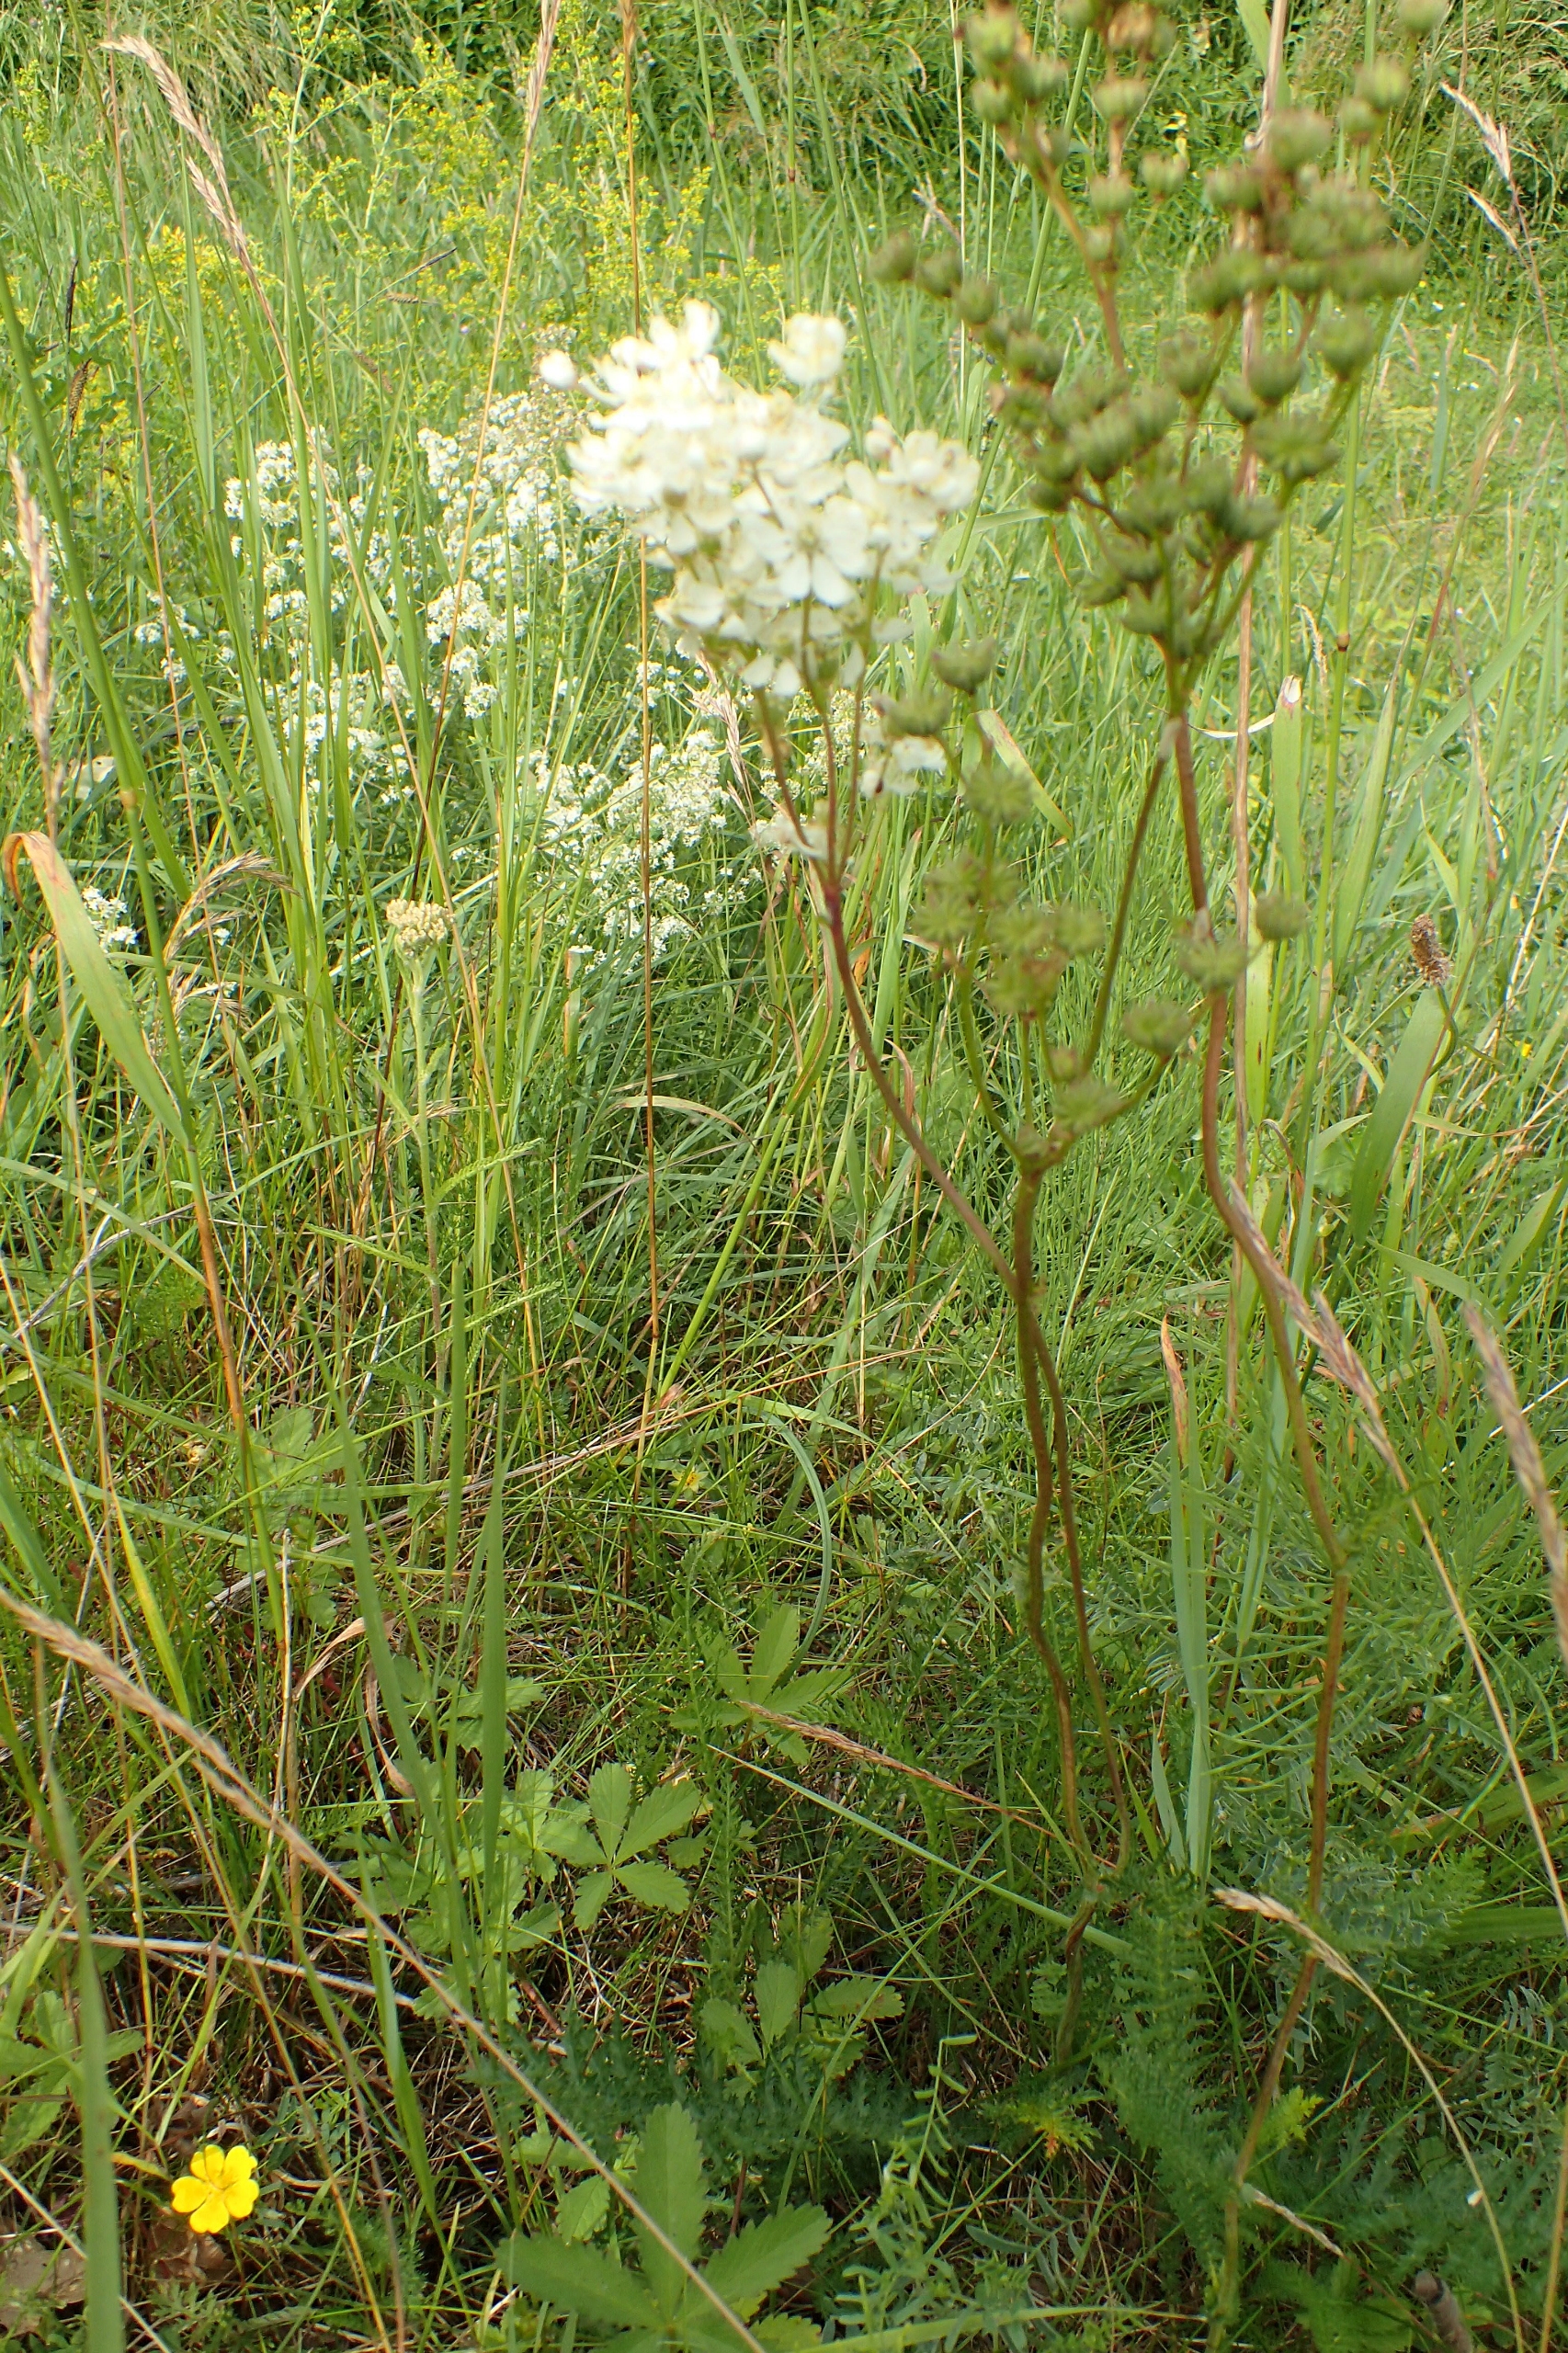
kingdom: Plantae
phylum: Tracheophyta
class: Magnoliopsida
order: Rosales
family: Rosaceae
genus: Filipendula
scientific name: Filipendula vulgaris
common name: Knoldet mjødurt
